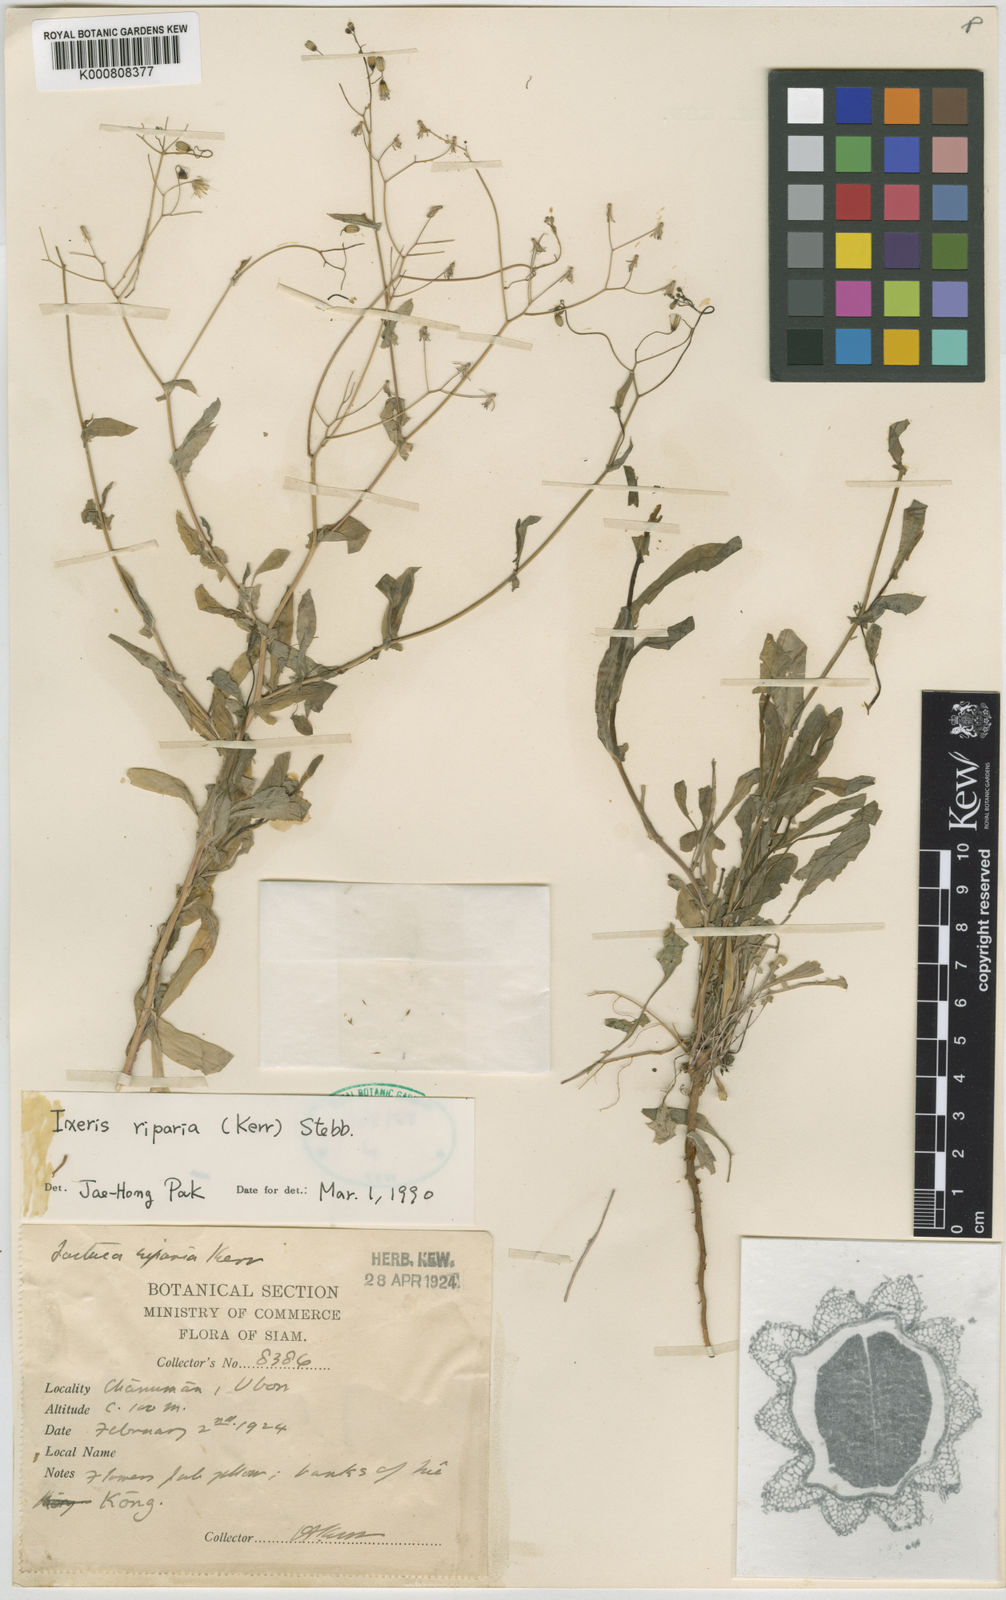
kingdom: Plantae
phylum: Tracheophyta
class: Magnoliopsida
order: Asterales
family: Asteraceae
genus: Ixeris
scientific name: Ixeris chinensis
